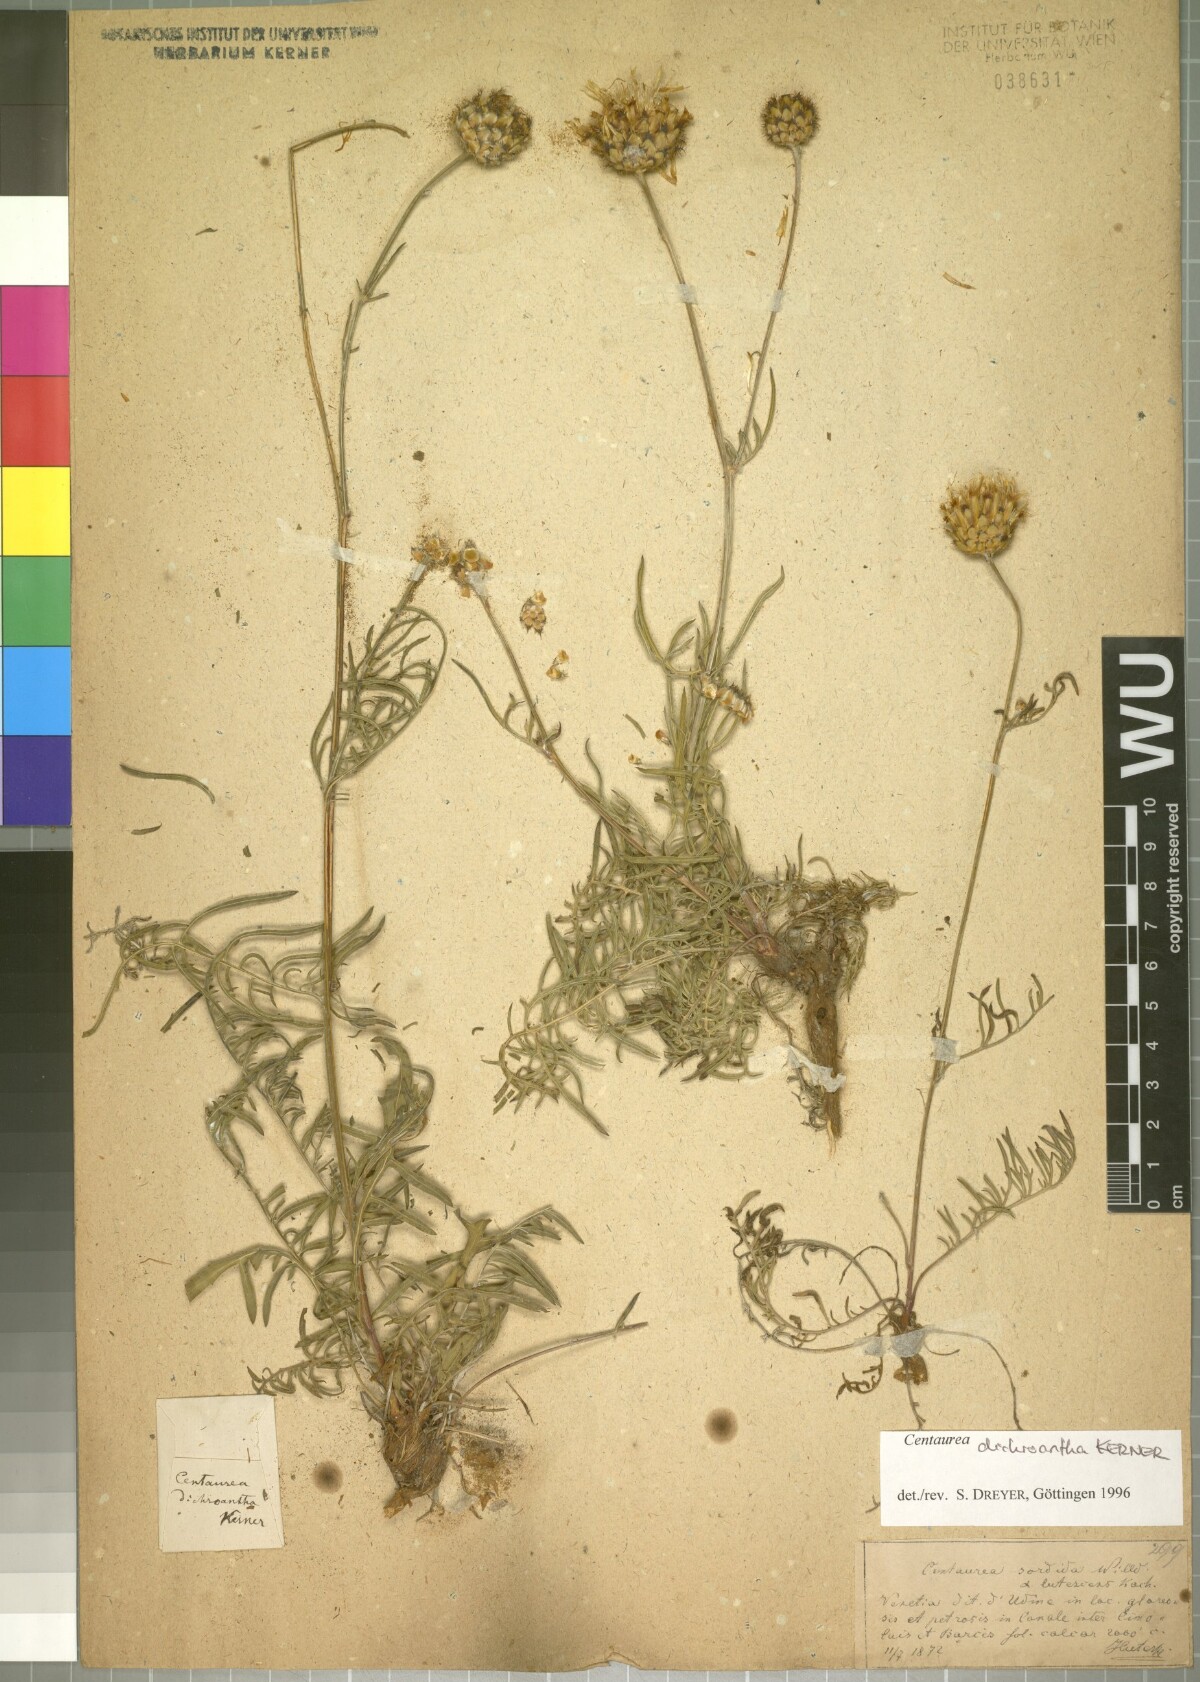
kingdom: Plantae
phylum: Tracheophyta
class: Magnoliopsida
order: Asterales
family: Asteraceae
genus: Centaurea
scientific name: Centaurea dichroantha
